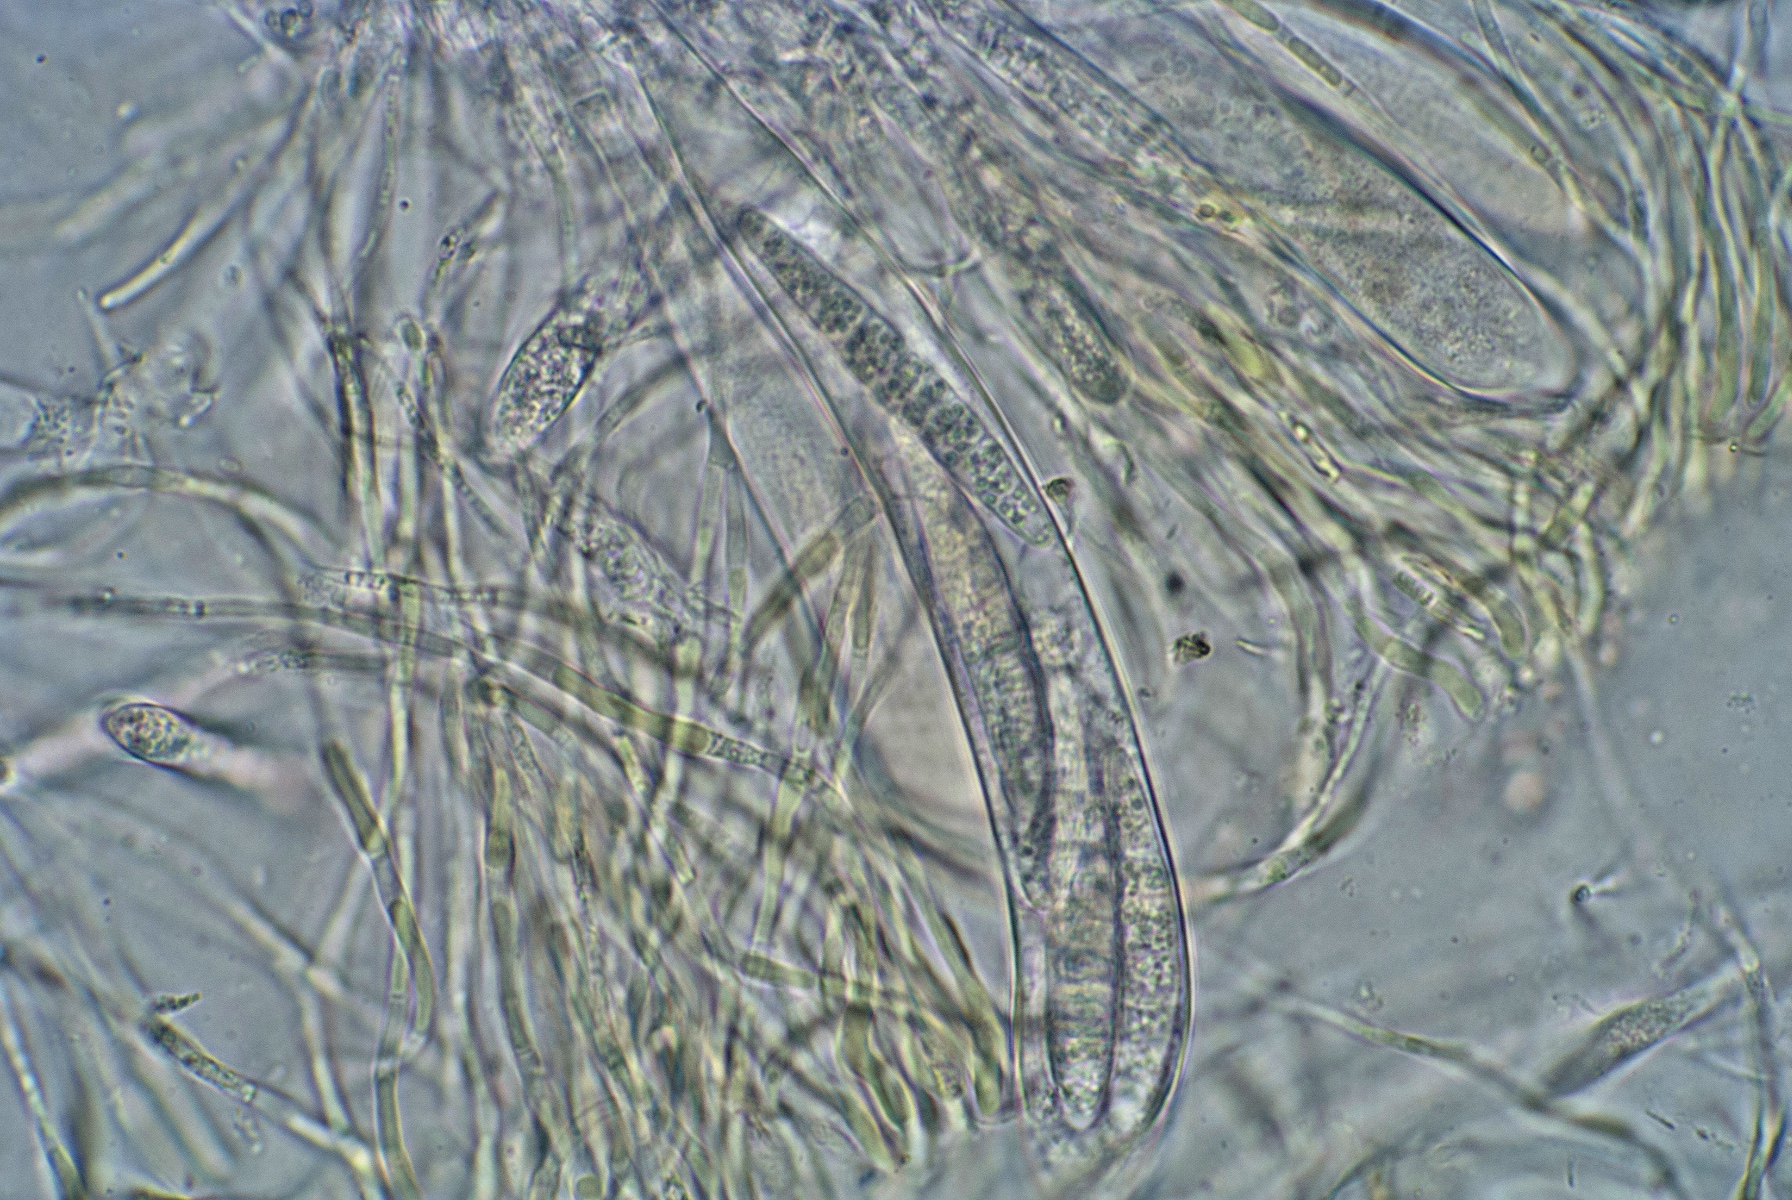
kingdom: Fungi
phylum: Ascomycota
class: Leotiomycetes
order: Helotiales
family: Helotiaceae
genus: Durella
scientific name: Durella connivens
